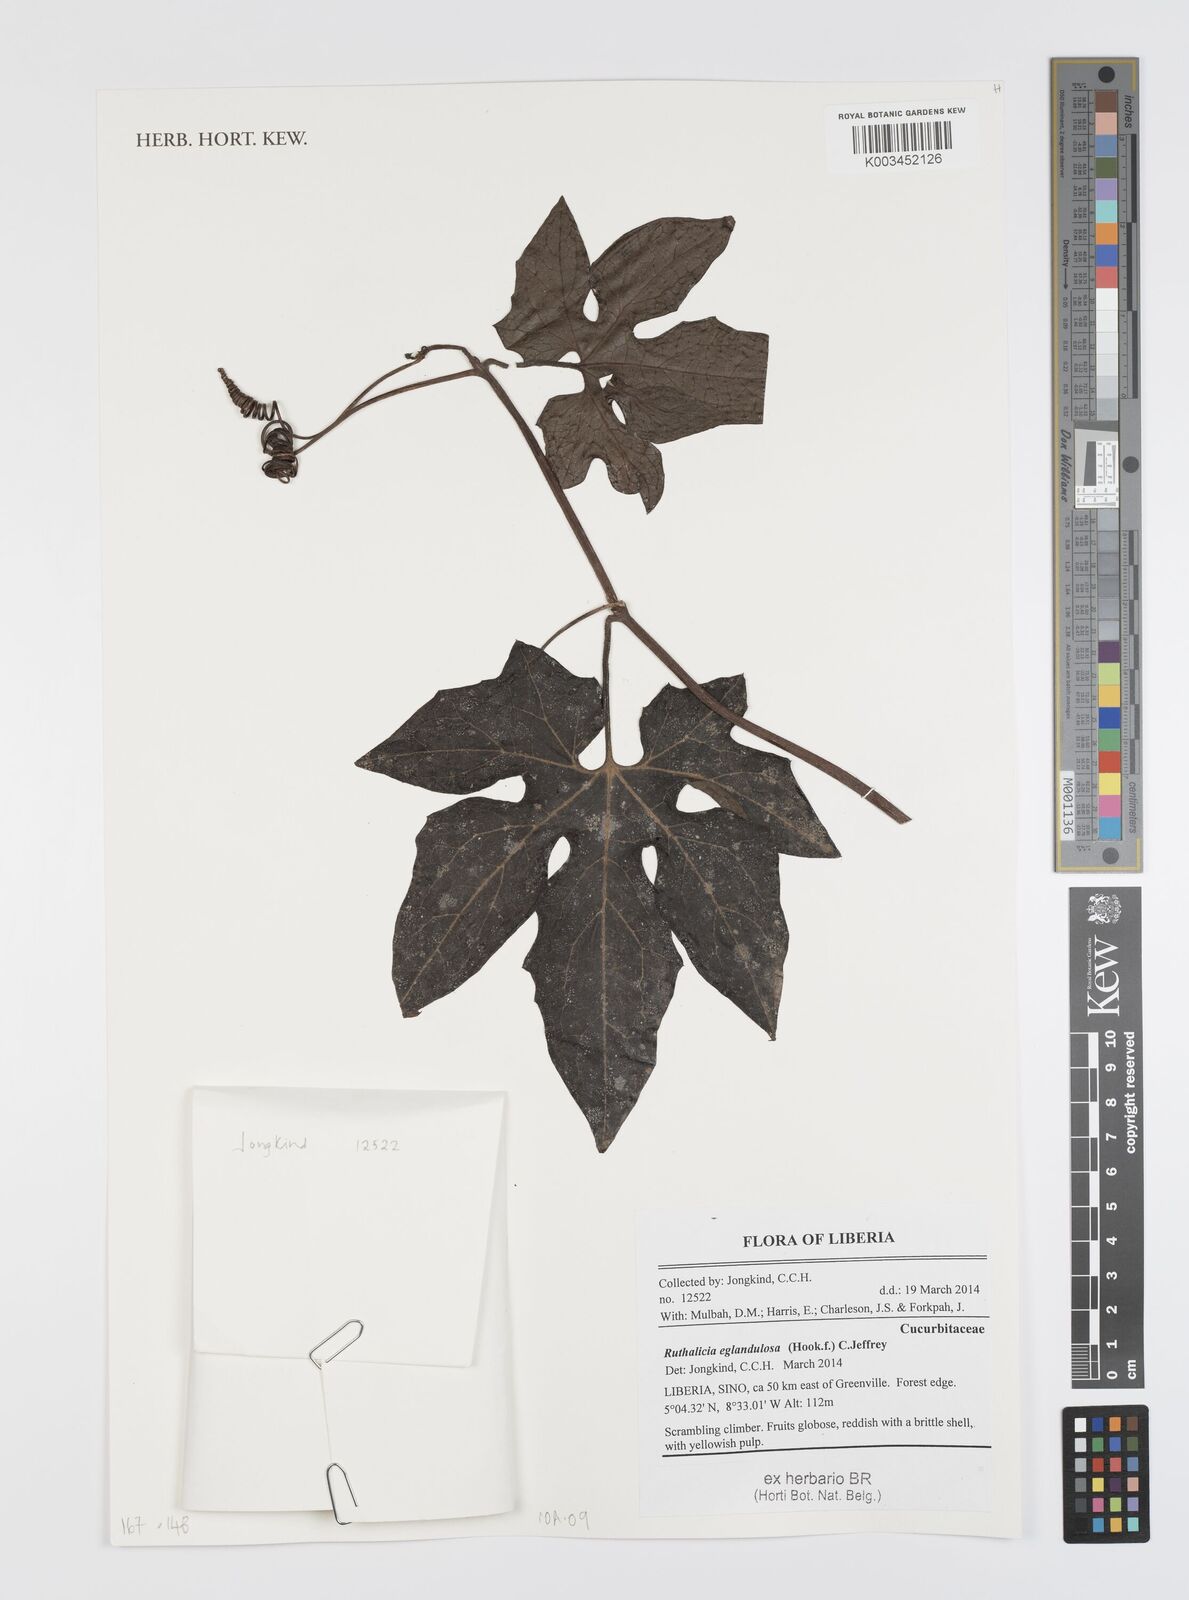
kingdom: Plantae
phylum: Tracheophyta
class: Magnoliopsida
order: Cucurbitales
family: Cucurbitaceae
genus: Ruthalicia
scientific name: Ruthalicia eglandulosa
